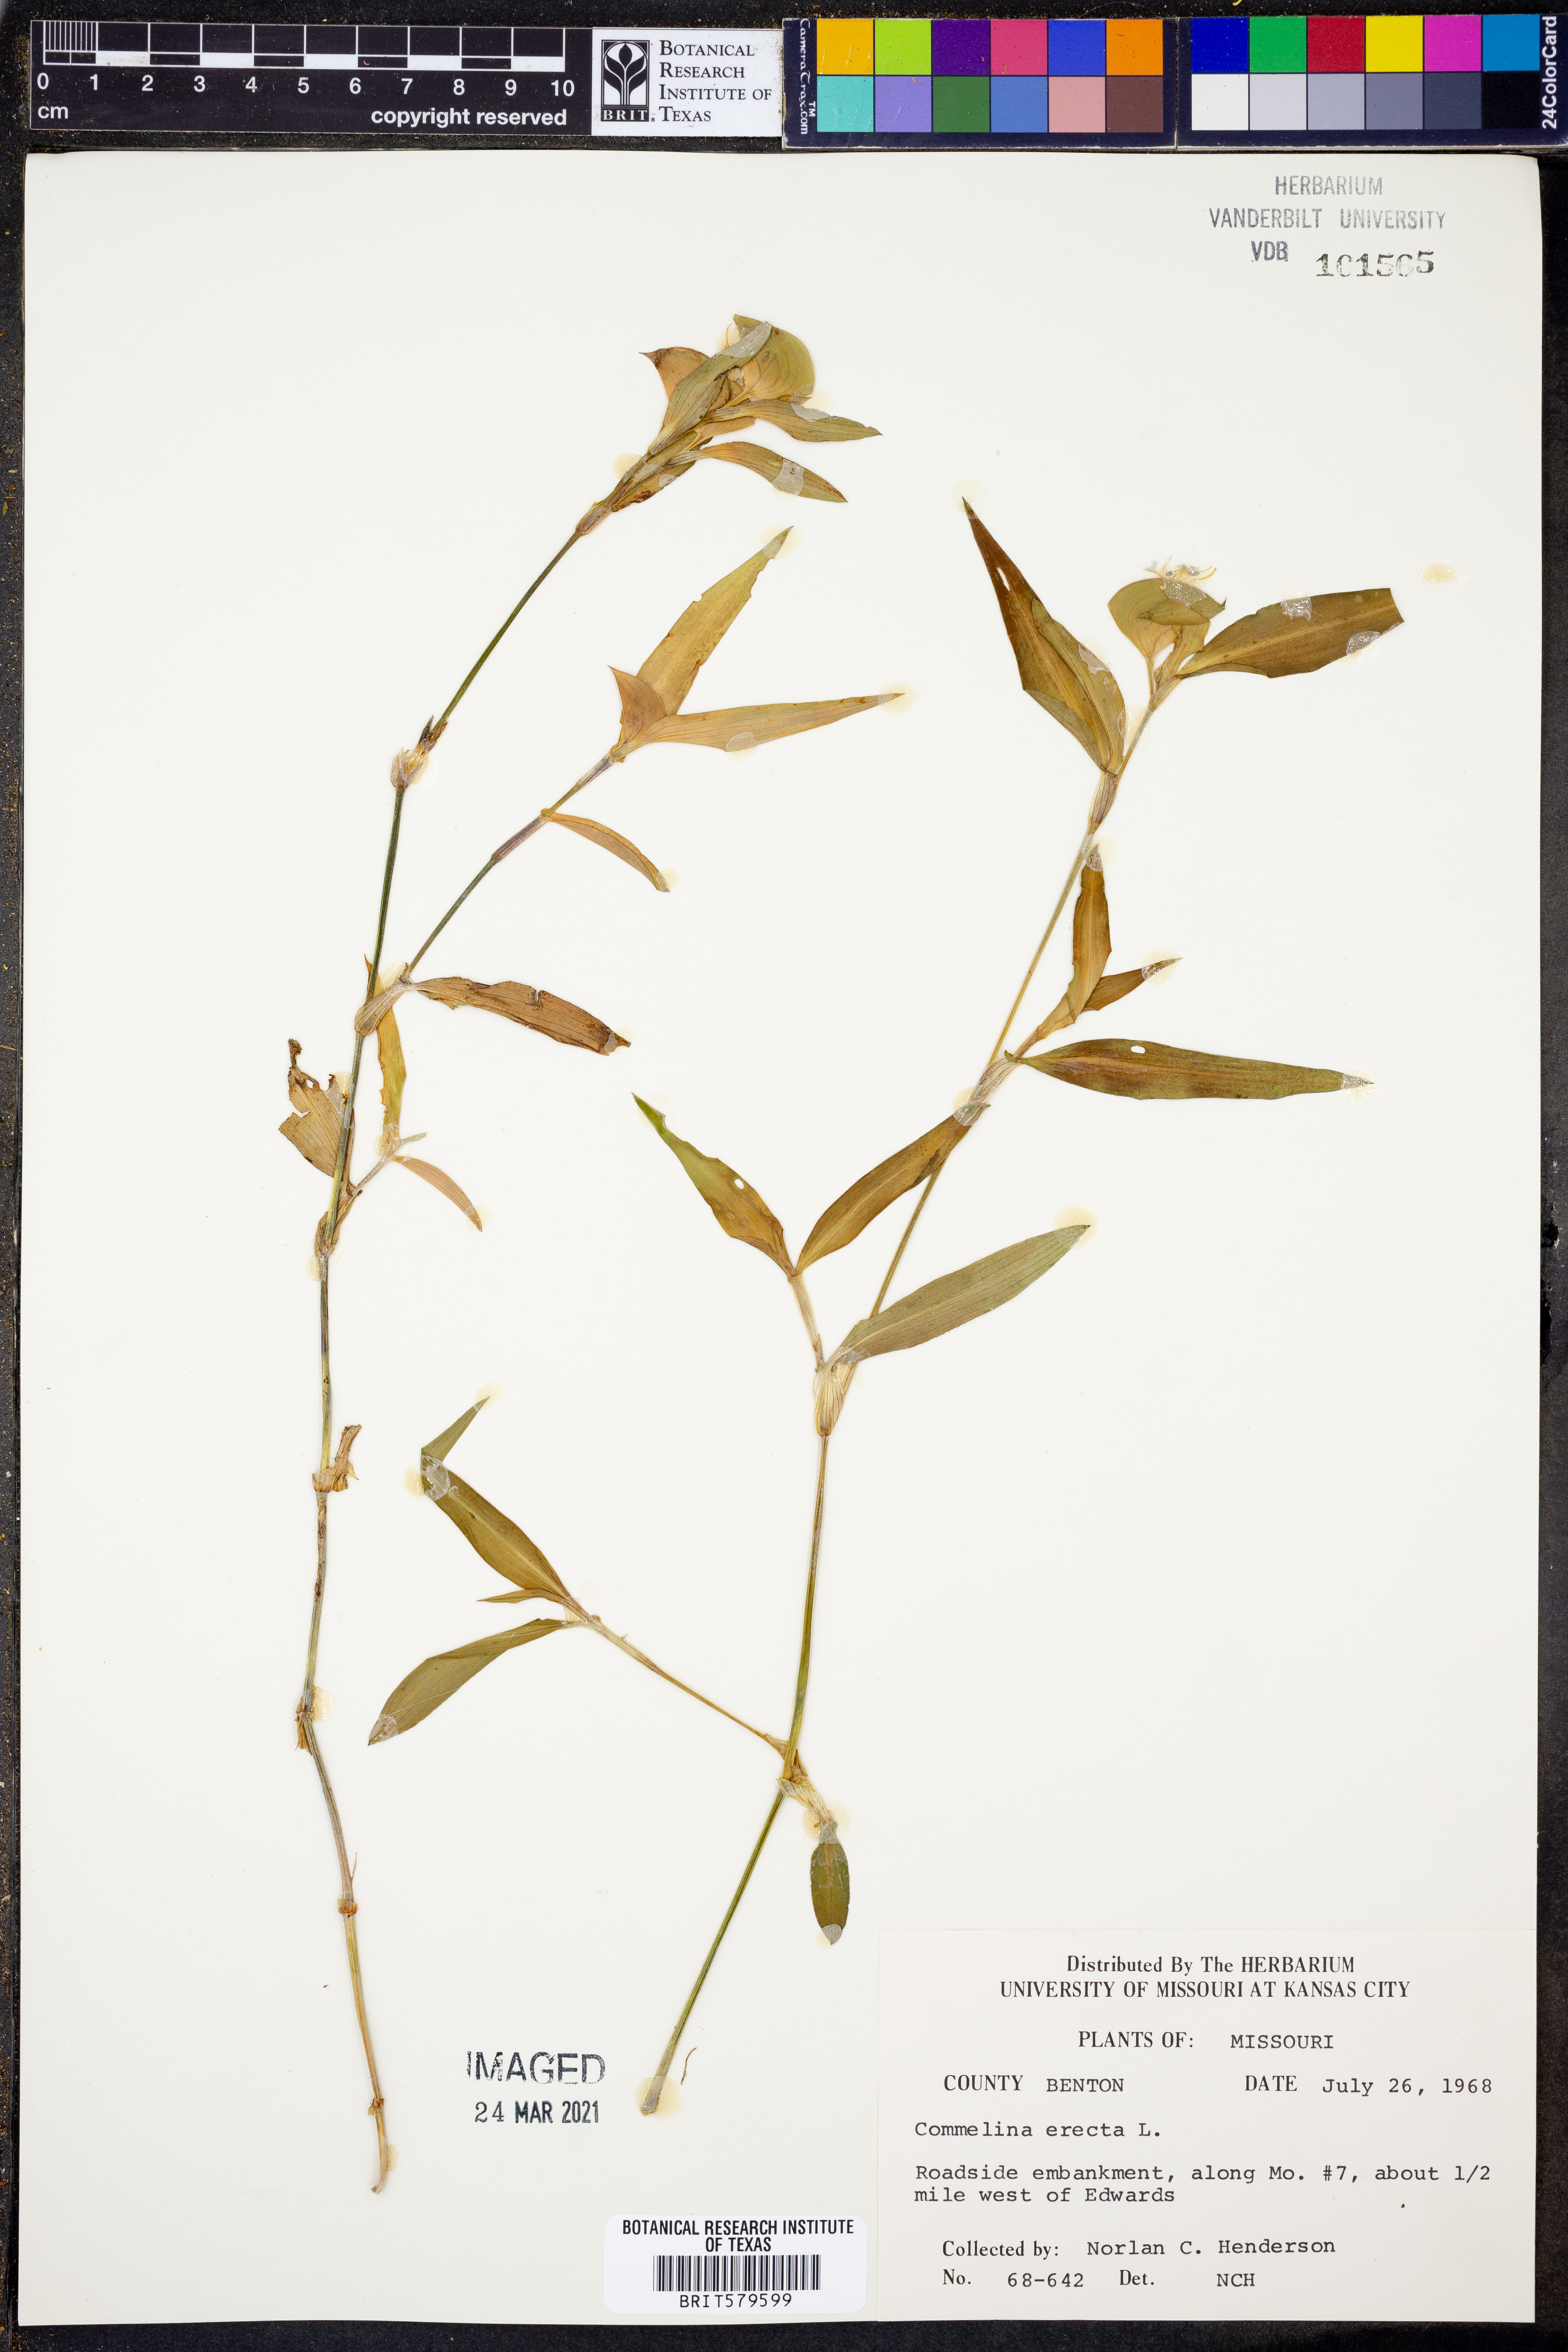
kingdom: Plantae
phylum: Tracheophyta
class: Liliopsida
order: Commelinales
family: Commelinaceae
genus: Commelina
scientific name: Commelina erecta
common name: Blousel blommetjie
